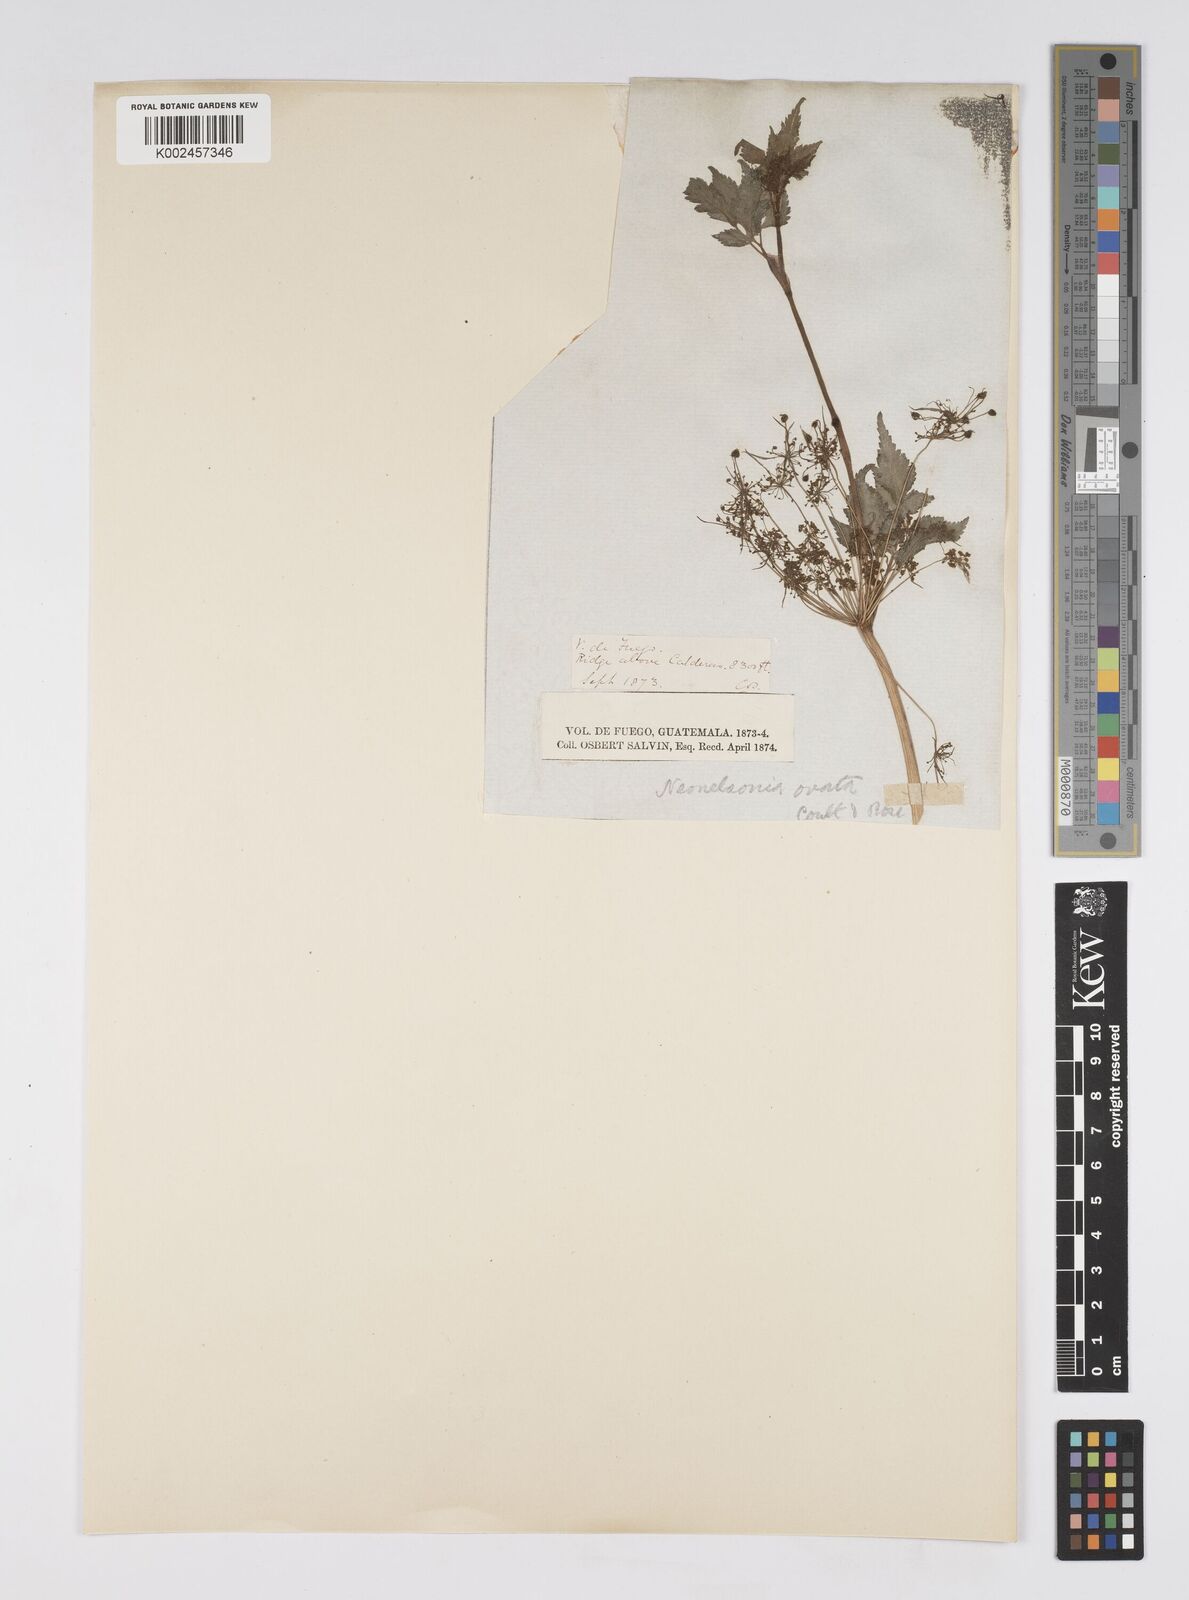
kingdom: Plantae
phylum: Tracheophyta
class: Magnoliopsida
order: Apiales
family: Apiaceae
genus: Neonelsonia
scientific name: Neonelsonia acuminata
